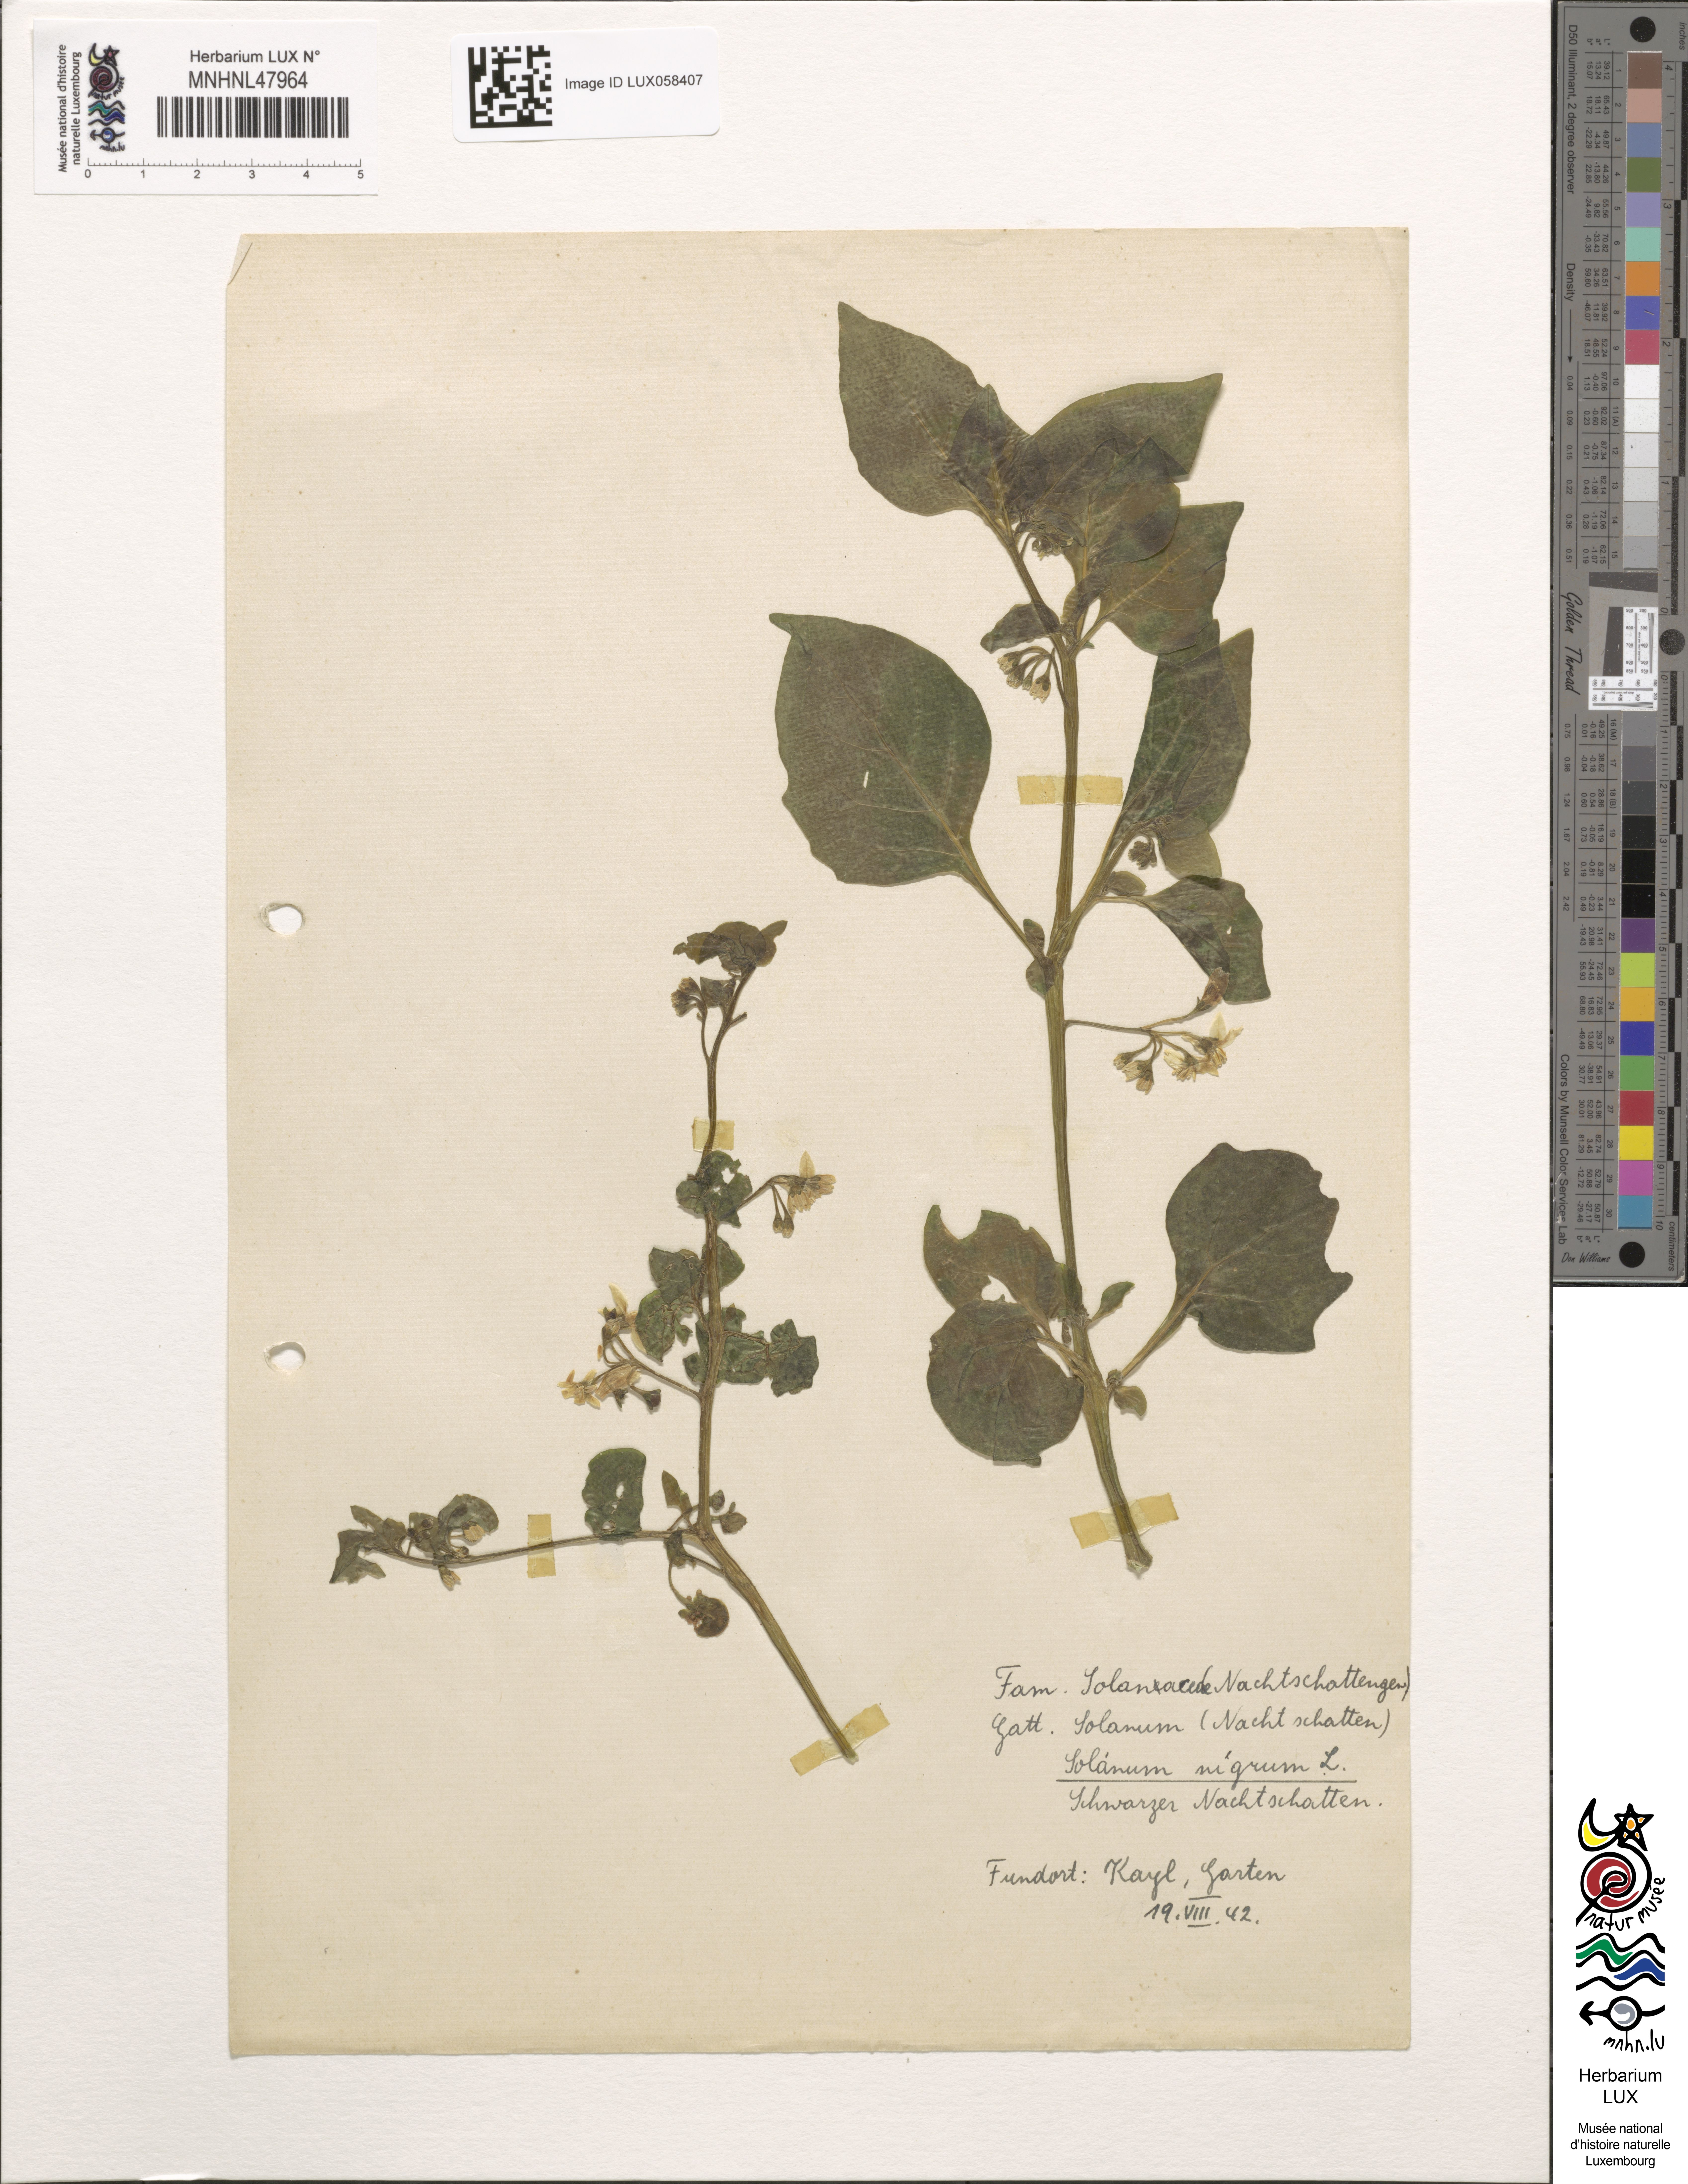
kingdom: Plantae
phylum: Tracheophyta
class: Magnoliopsida
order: Solanales
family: Solanaceae
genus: Solanum
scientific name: Solanum nigrum
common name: Black nightshade
